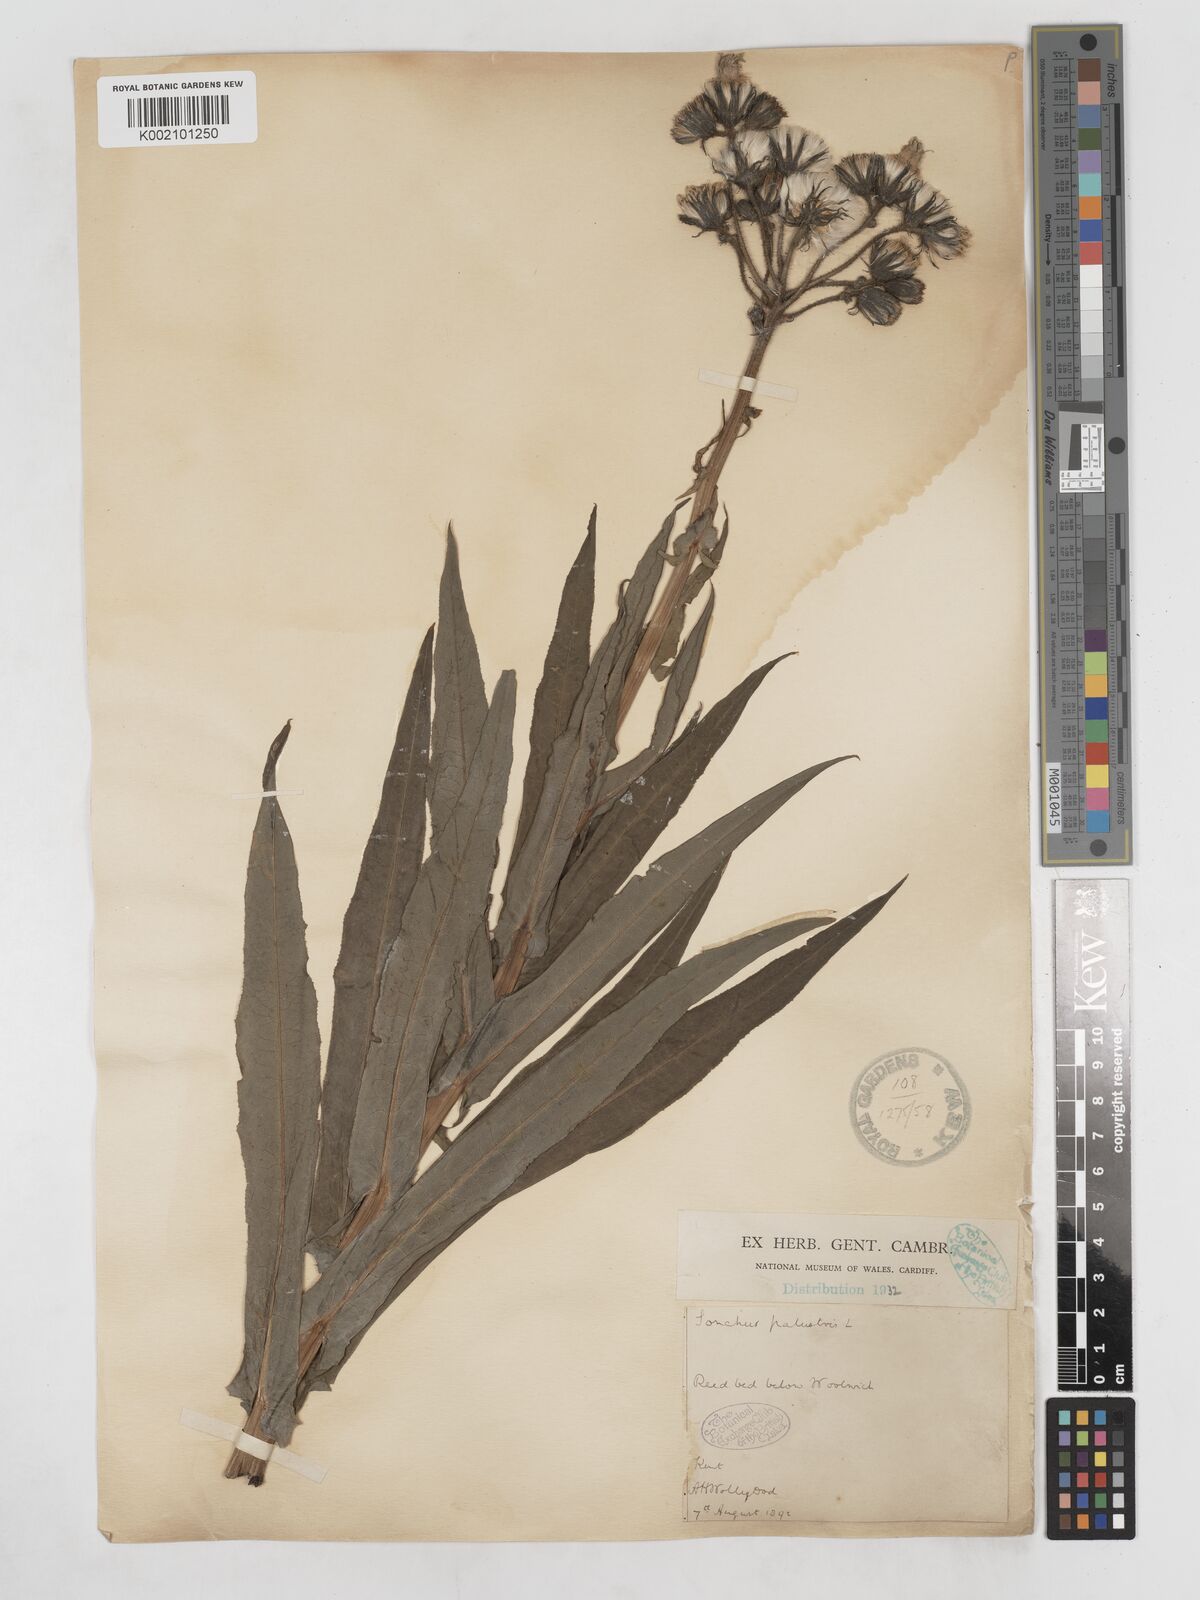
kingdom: Plantae
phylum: Tracheophyta
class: Magnoliopsida
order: Asterales
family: Asteraceae
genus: Sonchus
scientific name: Sonchus palustris
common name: Marsh sow-thistle
